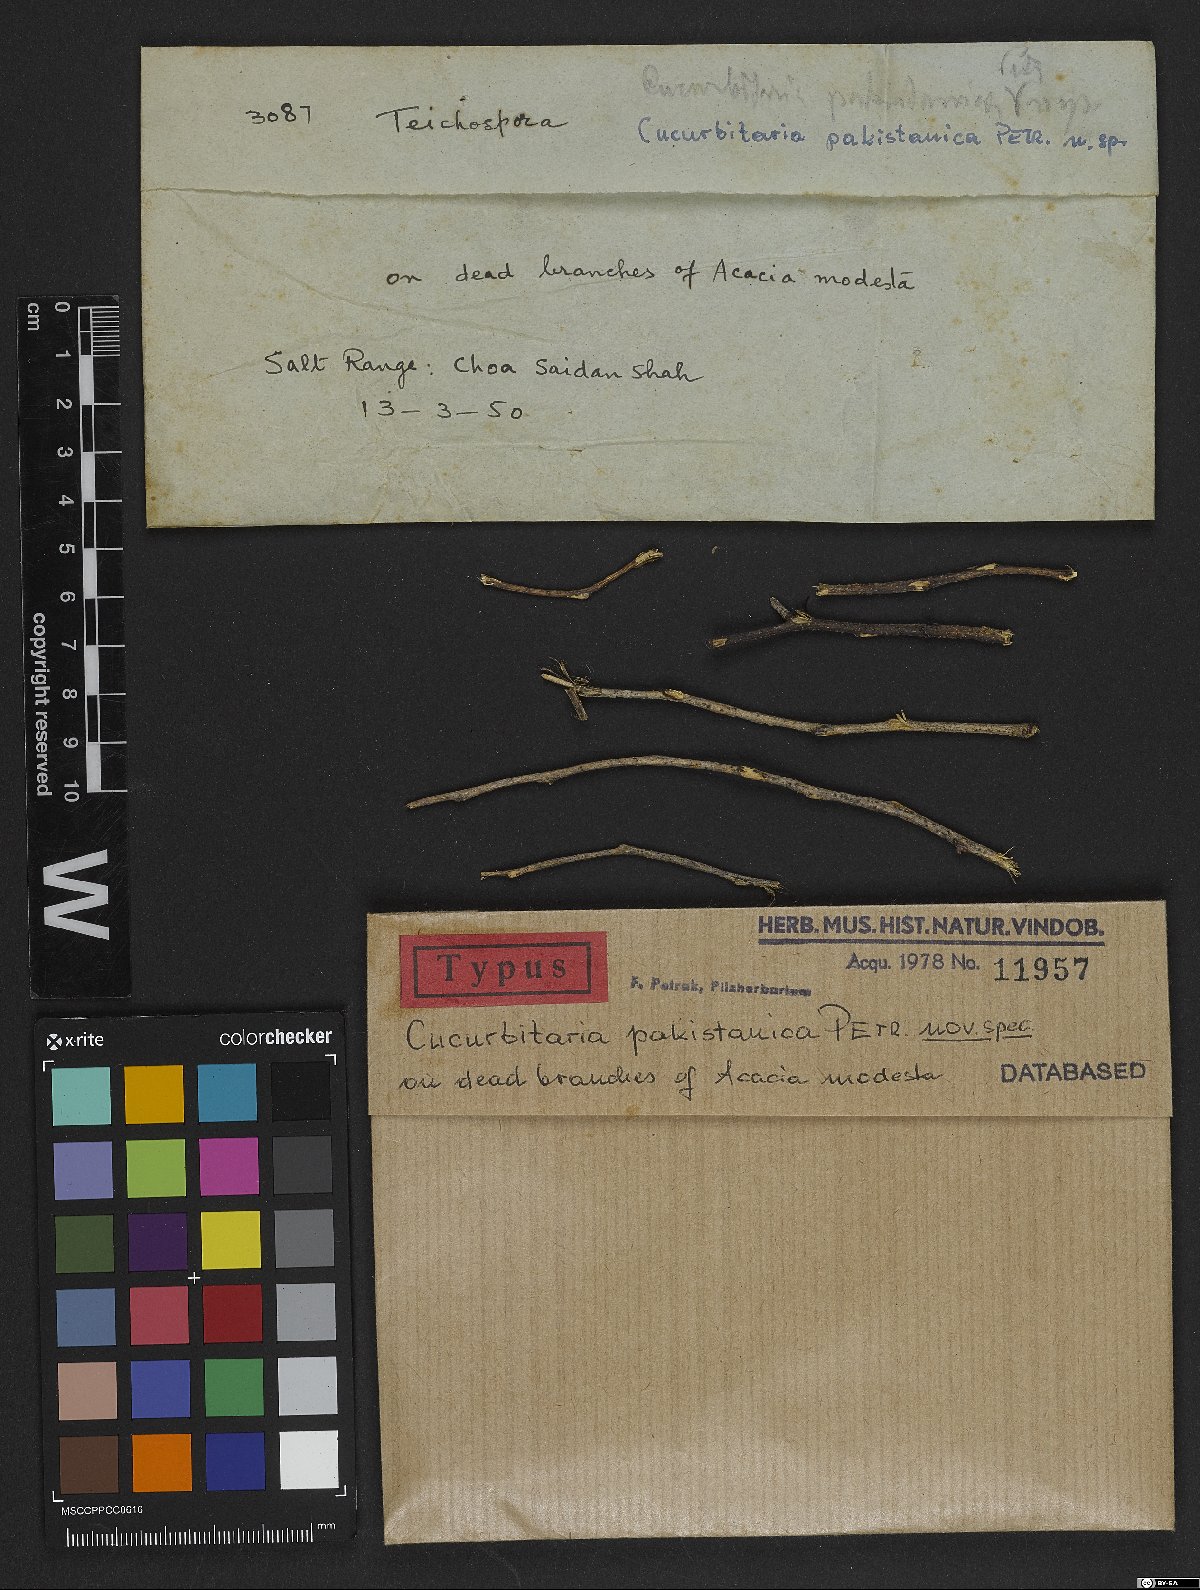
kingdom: Fungi
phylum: Ascomycota
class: Dothideomycetes
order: Pleosporales
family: Cucurbitariaceae
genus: Cucurbitaria
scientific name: Cucurbitaria pakistanica
